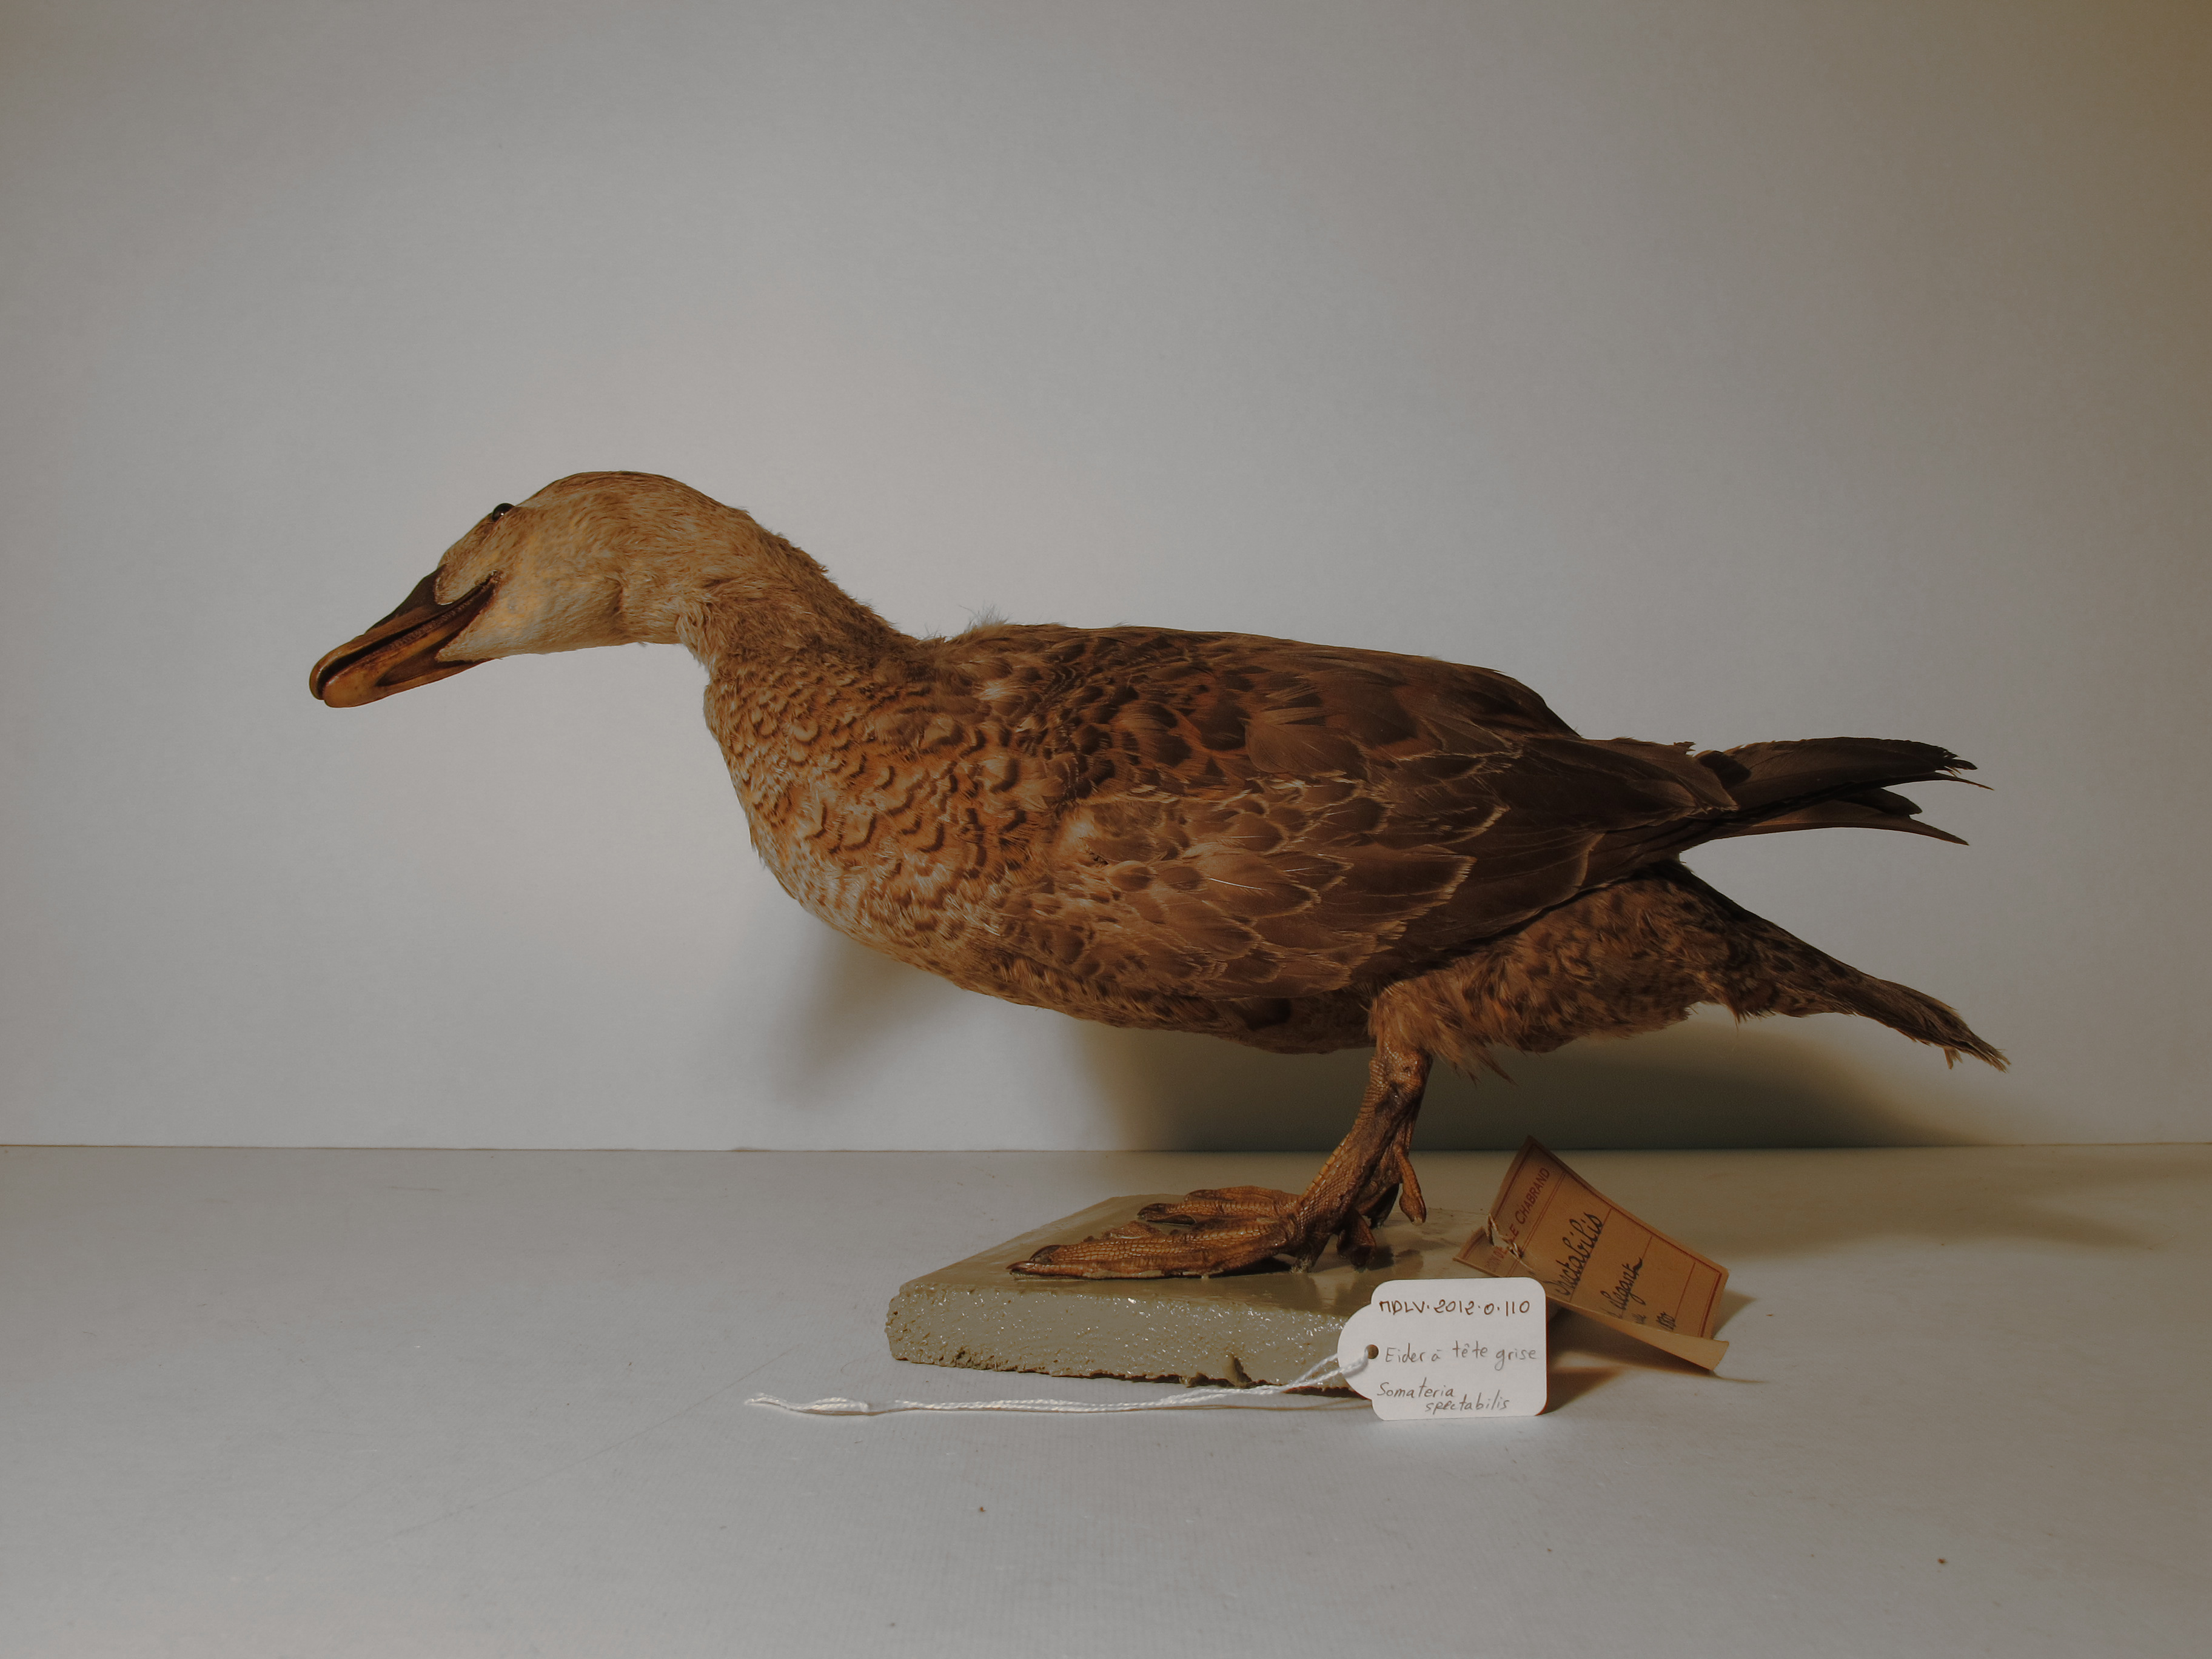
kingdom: Animalia
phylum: Chordata
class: Aves
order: Anseriformes
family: Anatidae
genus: Somateria
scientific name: Somateria spectabilis
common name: King Eider
